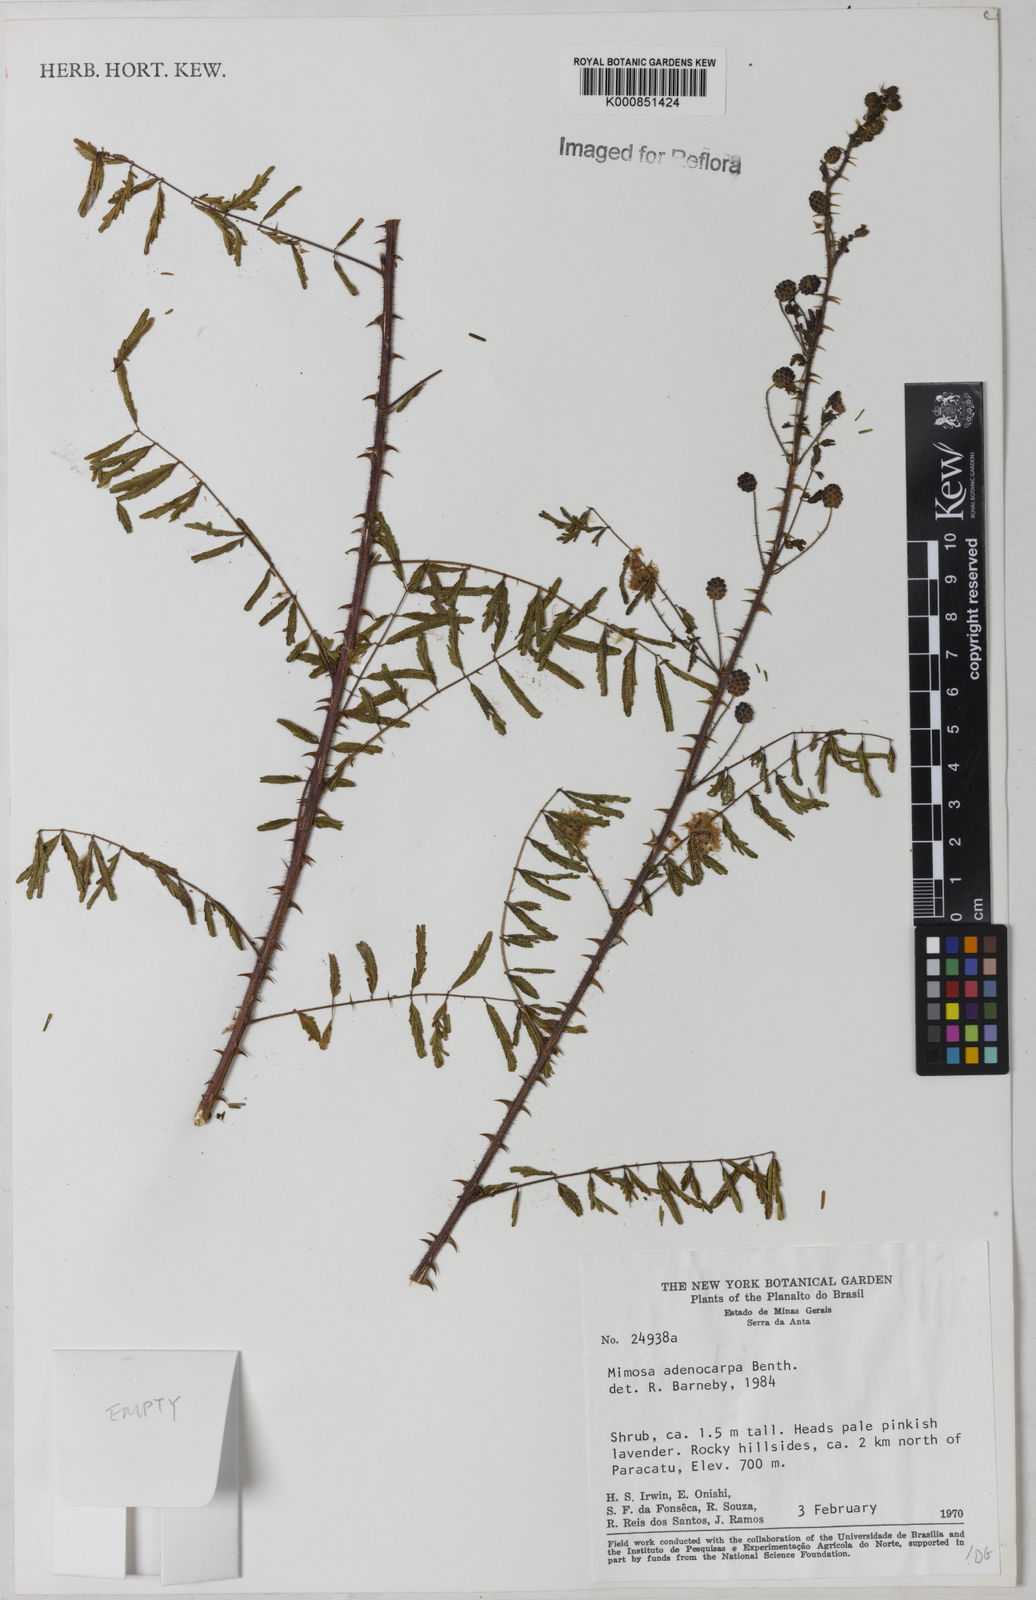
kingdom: Plantae
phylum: Tracheophyta
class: Magnoliopsida
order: Fabales
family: Fabaceae
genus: Mimosa
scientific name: Mimosa adenocarpa
